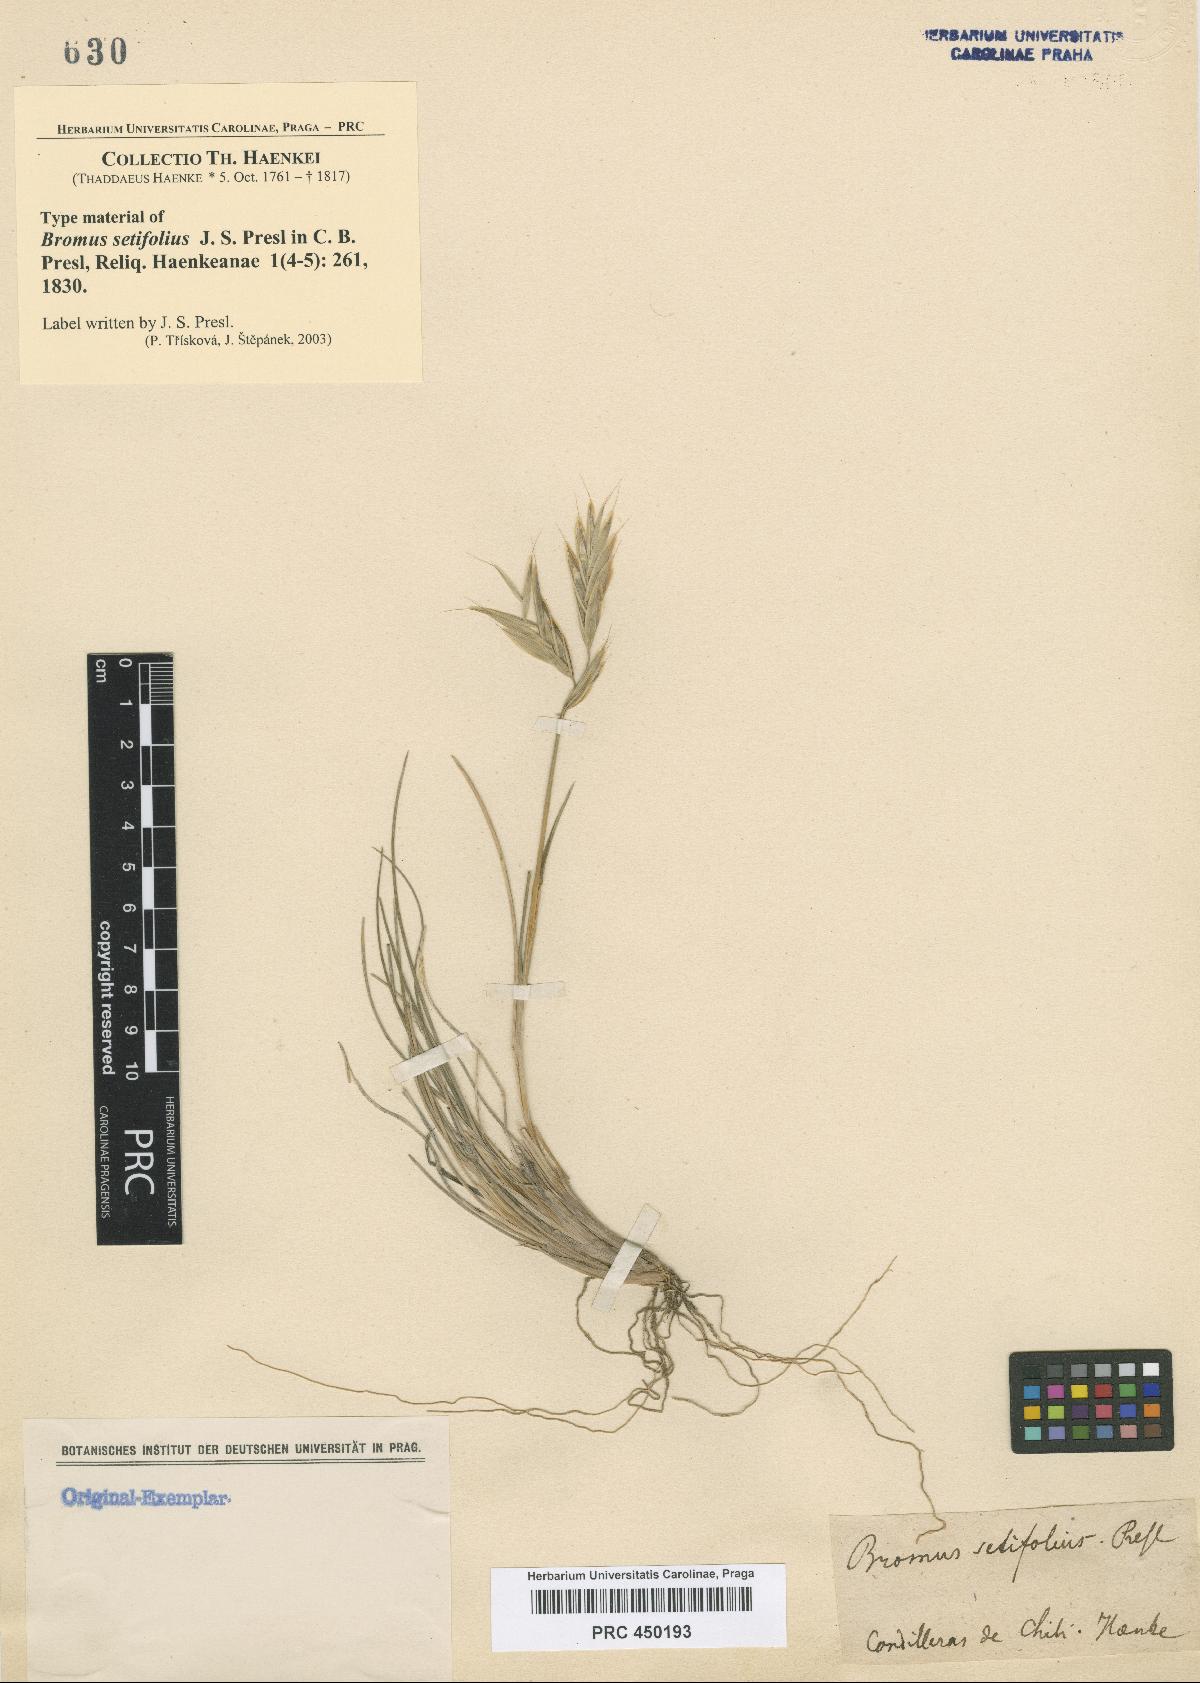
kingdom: Plantae
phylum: Tracheophyta
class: Liliopsida
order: Poales
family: Poaceae
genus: Bromus
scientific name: Bromus setifolius
